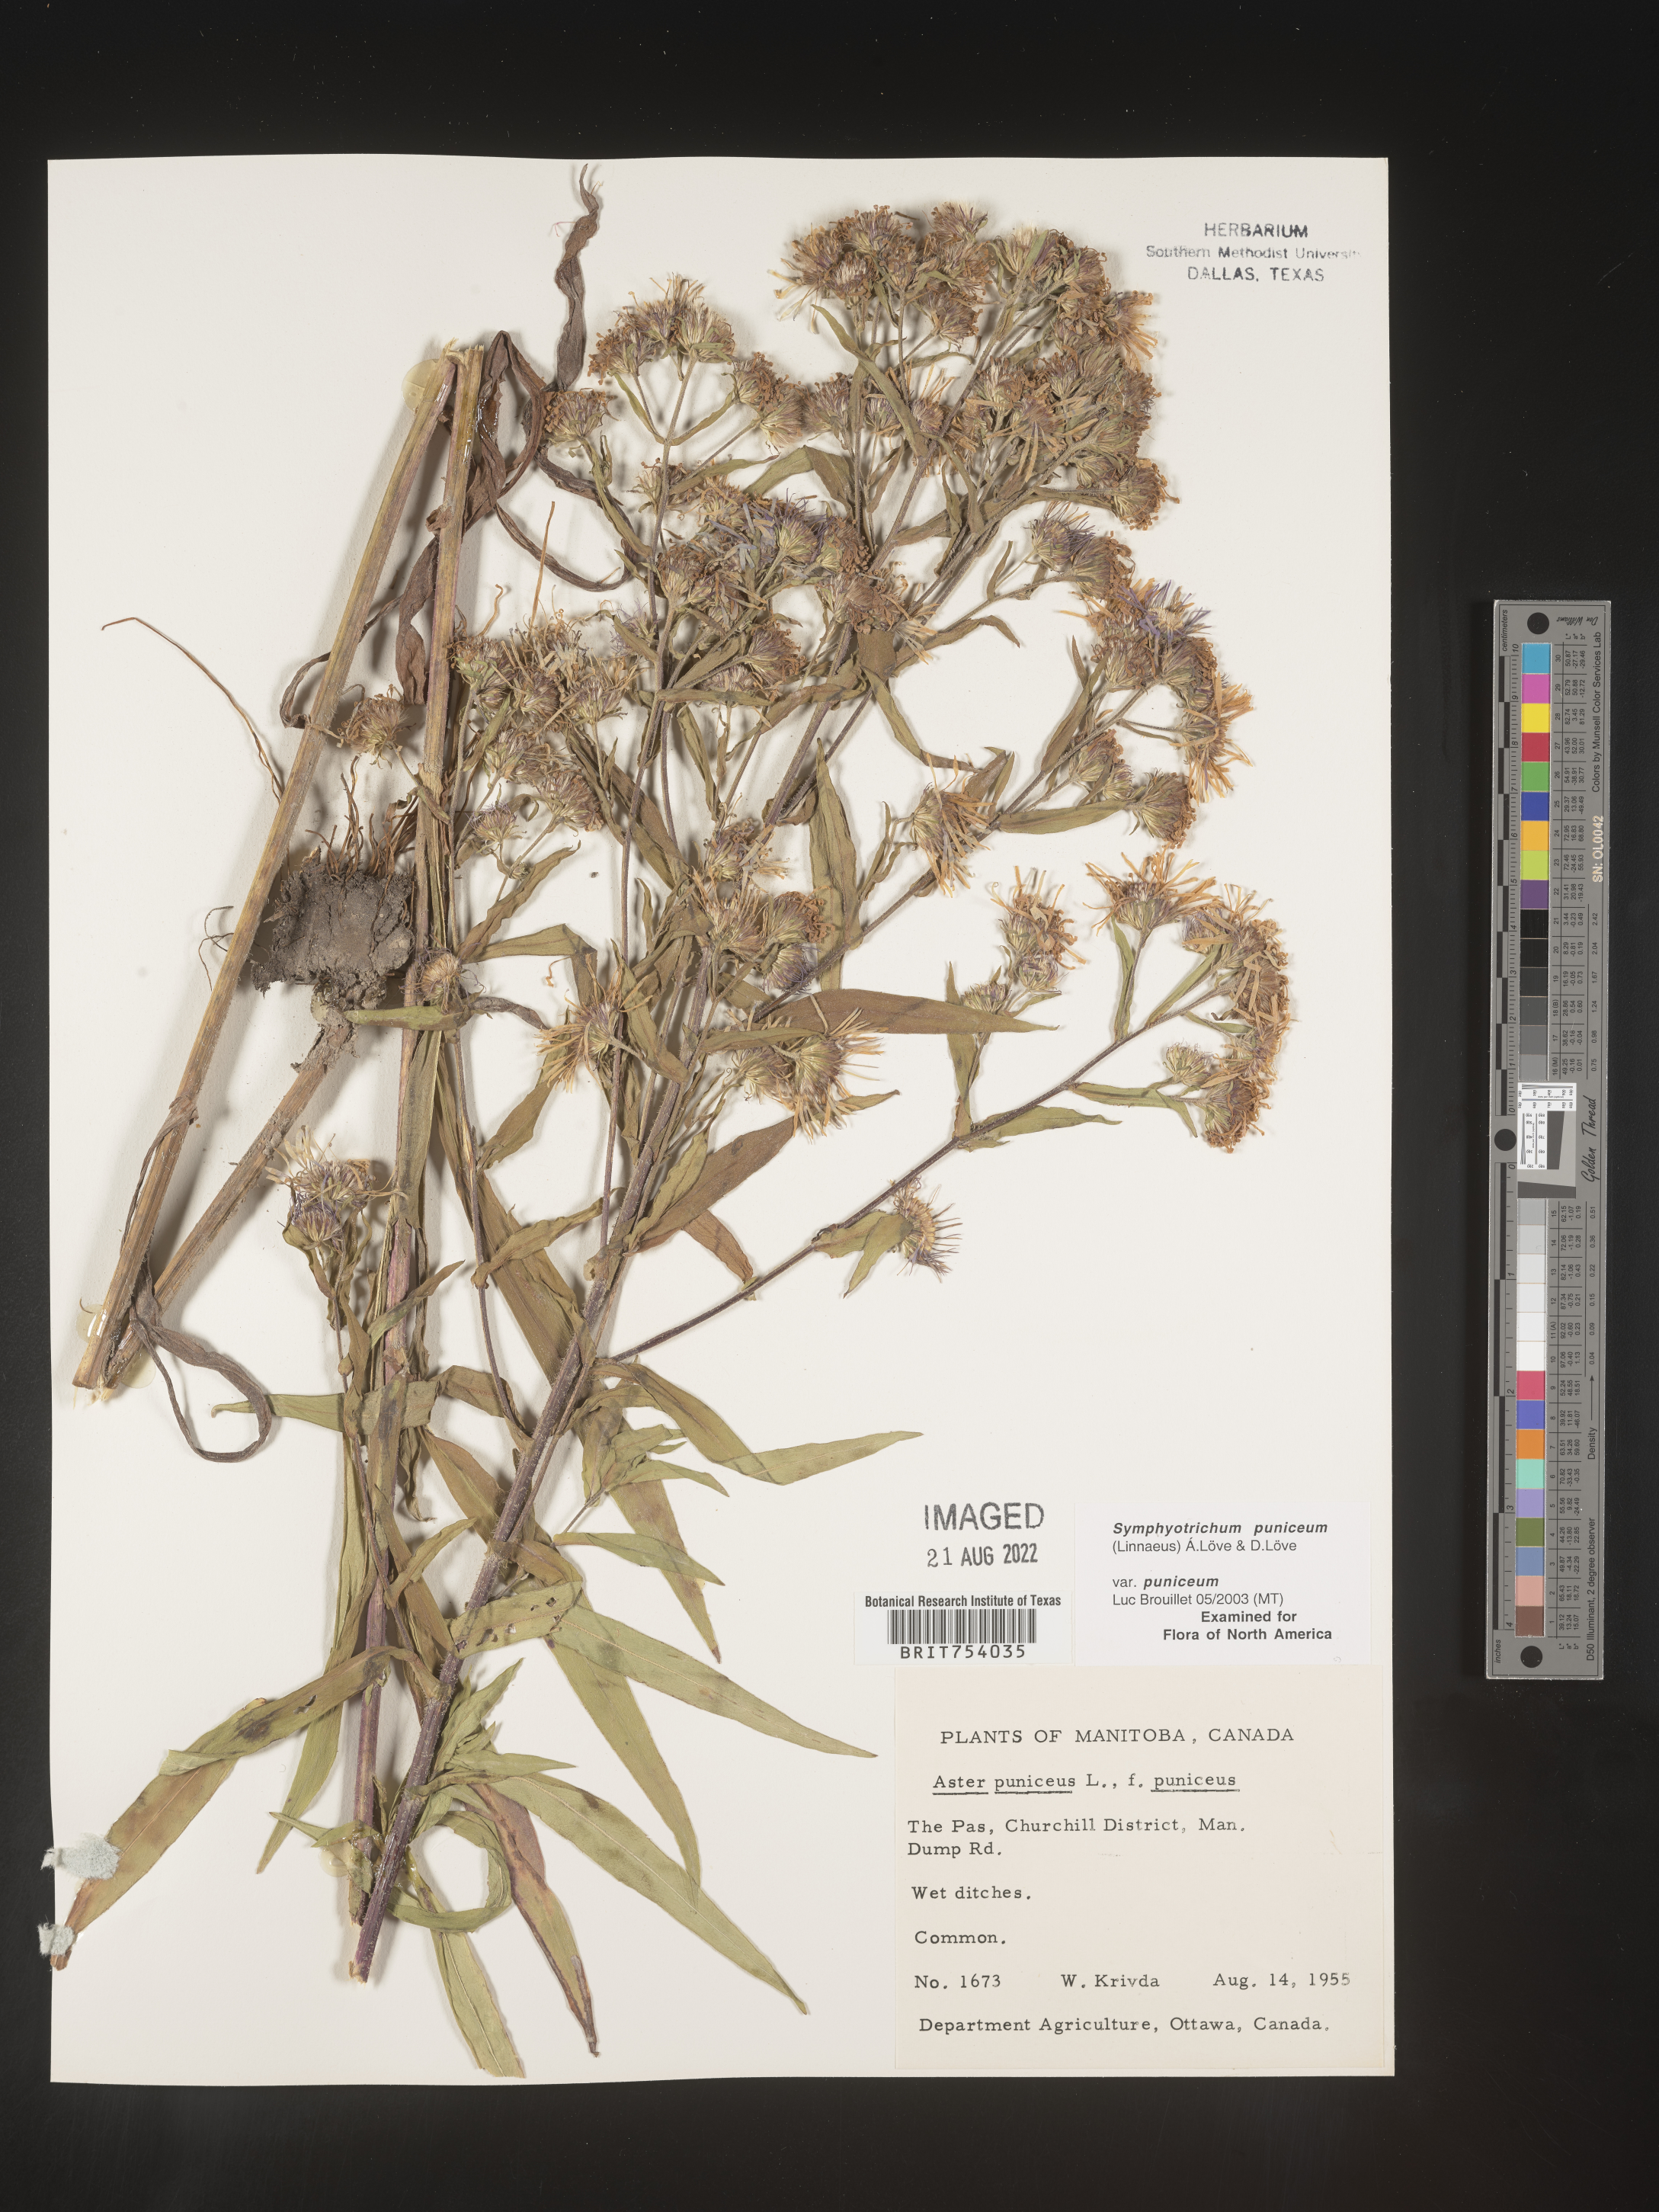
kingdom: Plantae
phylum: Tracheophyta
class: Magnoliopsida
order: Asterales
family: Asteraceae
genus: Symphyotrichum
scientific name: Symphyotrichum puniceum
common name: Bog aster
